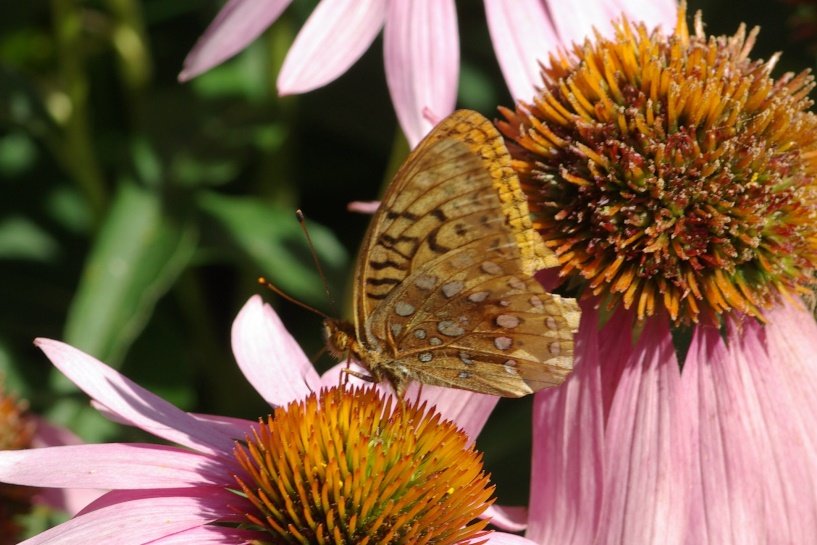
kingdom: Animalia
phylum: Arthropoda
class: Insecta
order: Lepidoptera
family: Nymphalidae
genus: Speyeria
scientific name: Speyeria cybele
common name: Great Spangled Fritillary
